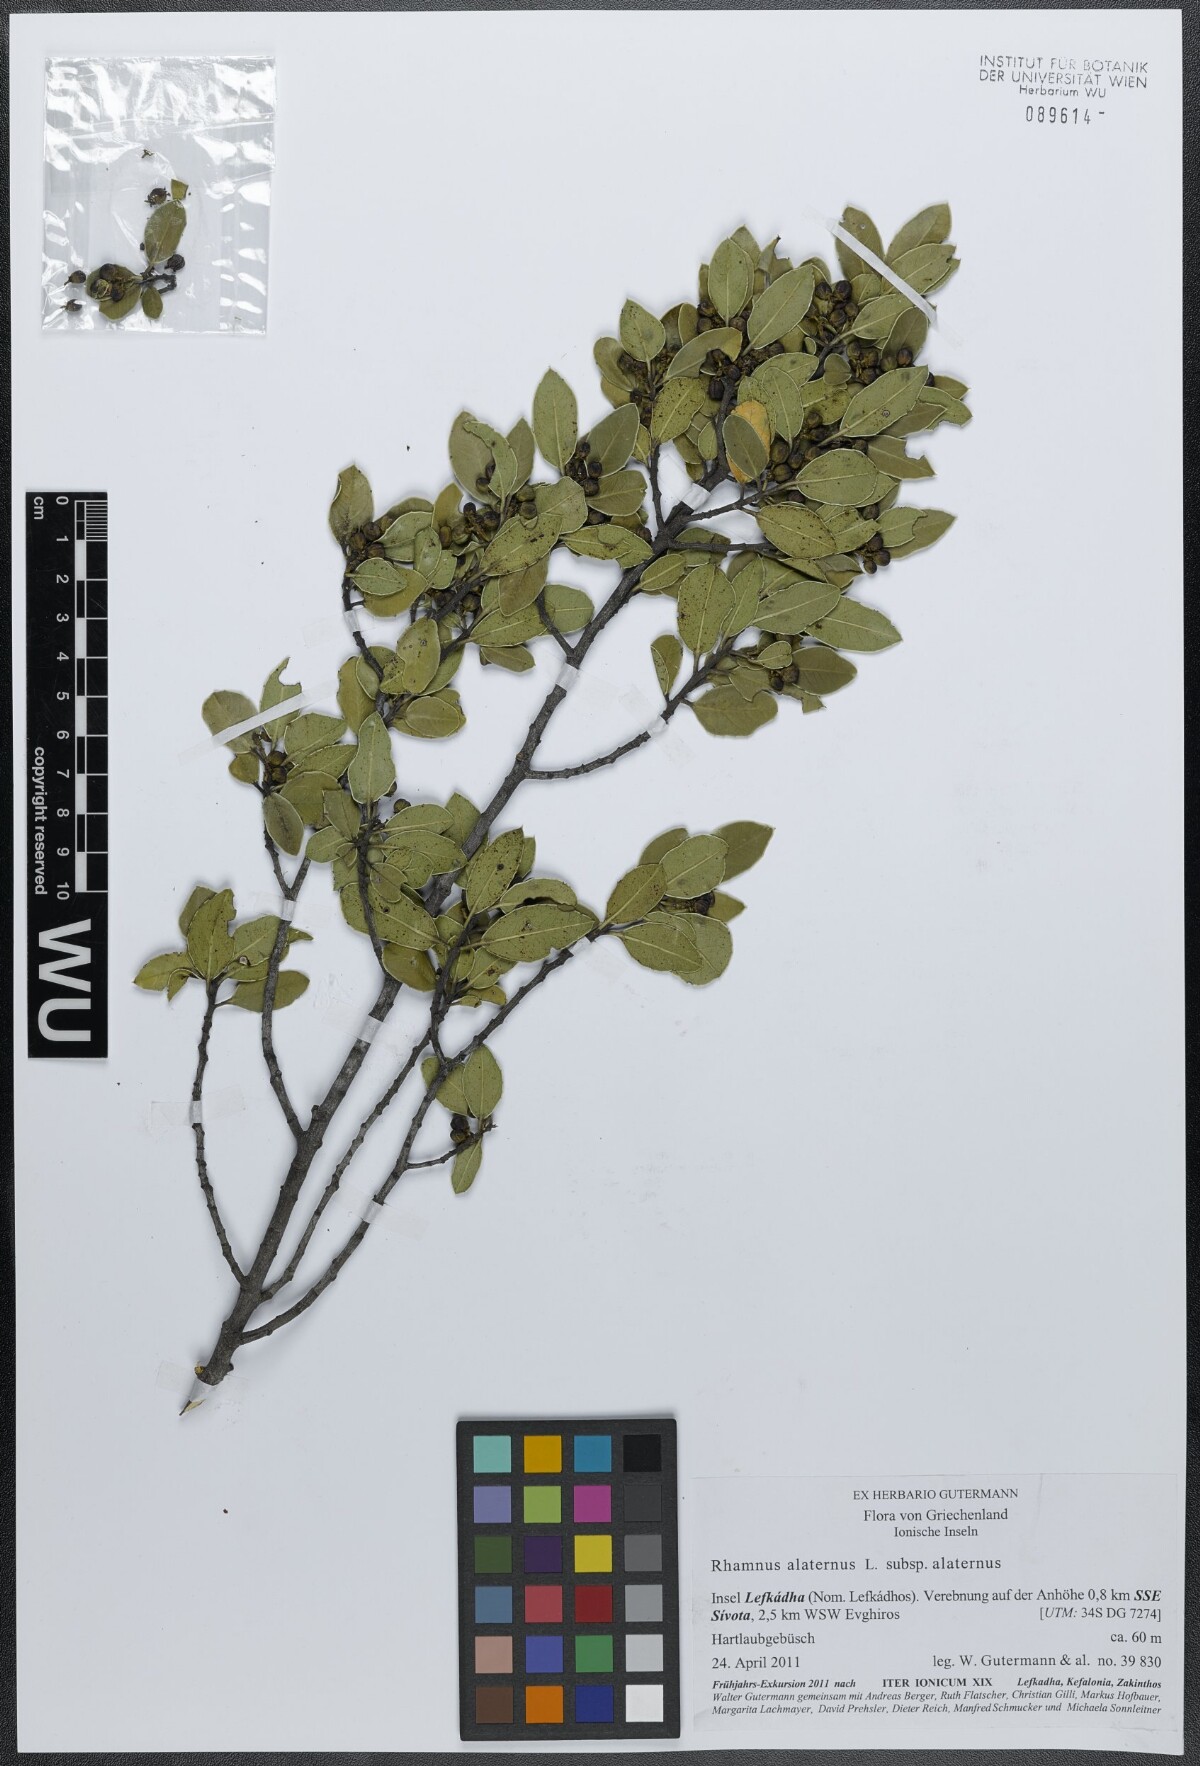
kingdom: Plantae
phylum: Tracheophyta
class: Magnoliopsida
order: Rosales
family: Rhamnaceae
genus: Rhamnus
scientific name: Rhamnus alaternus
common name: Mediterranean buckthorn
